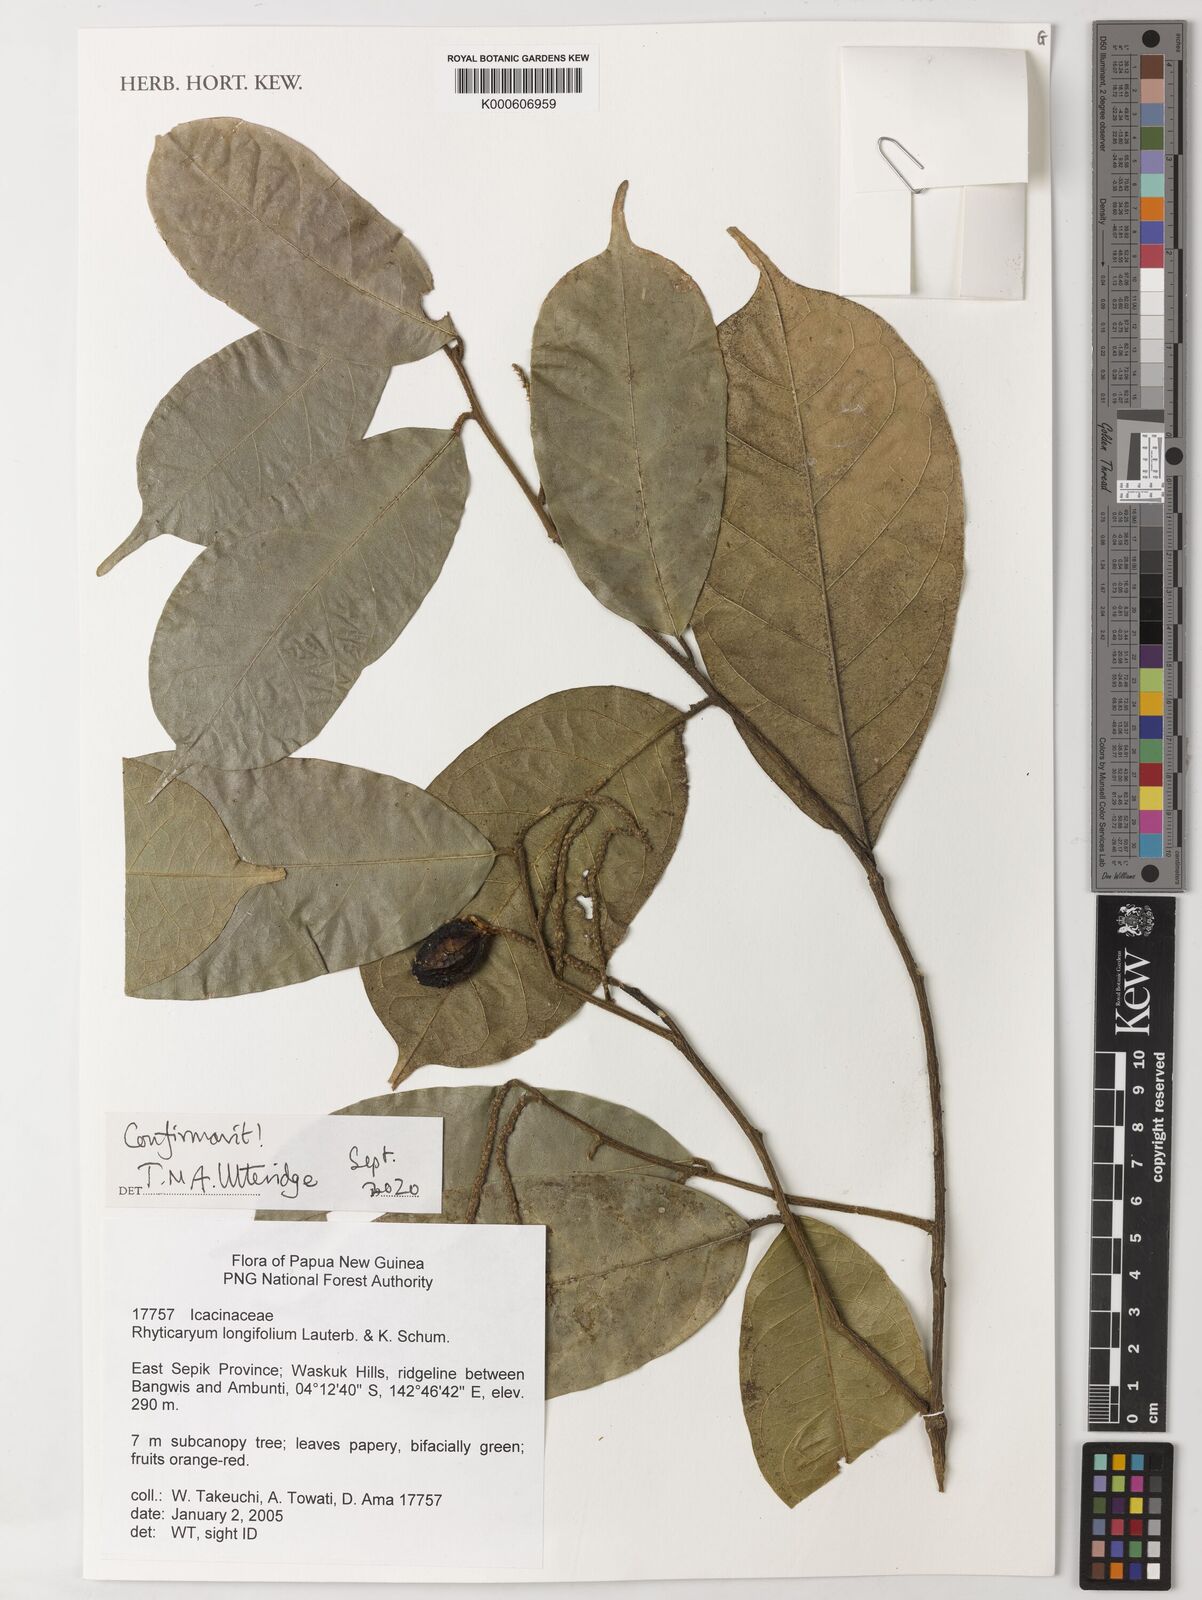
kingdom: Plantae
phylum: Tracheophyta
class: Magnoliopsida
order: Icacinales
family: Icacinaceae
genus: Ryticaryum
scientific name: Ryticaryum
